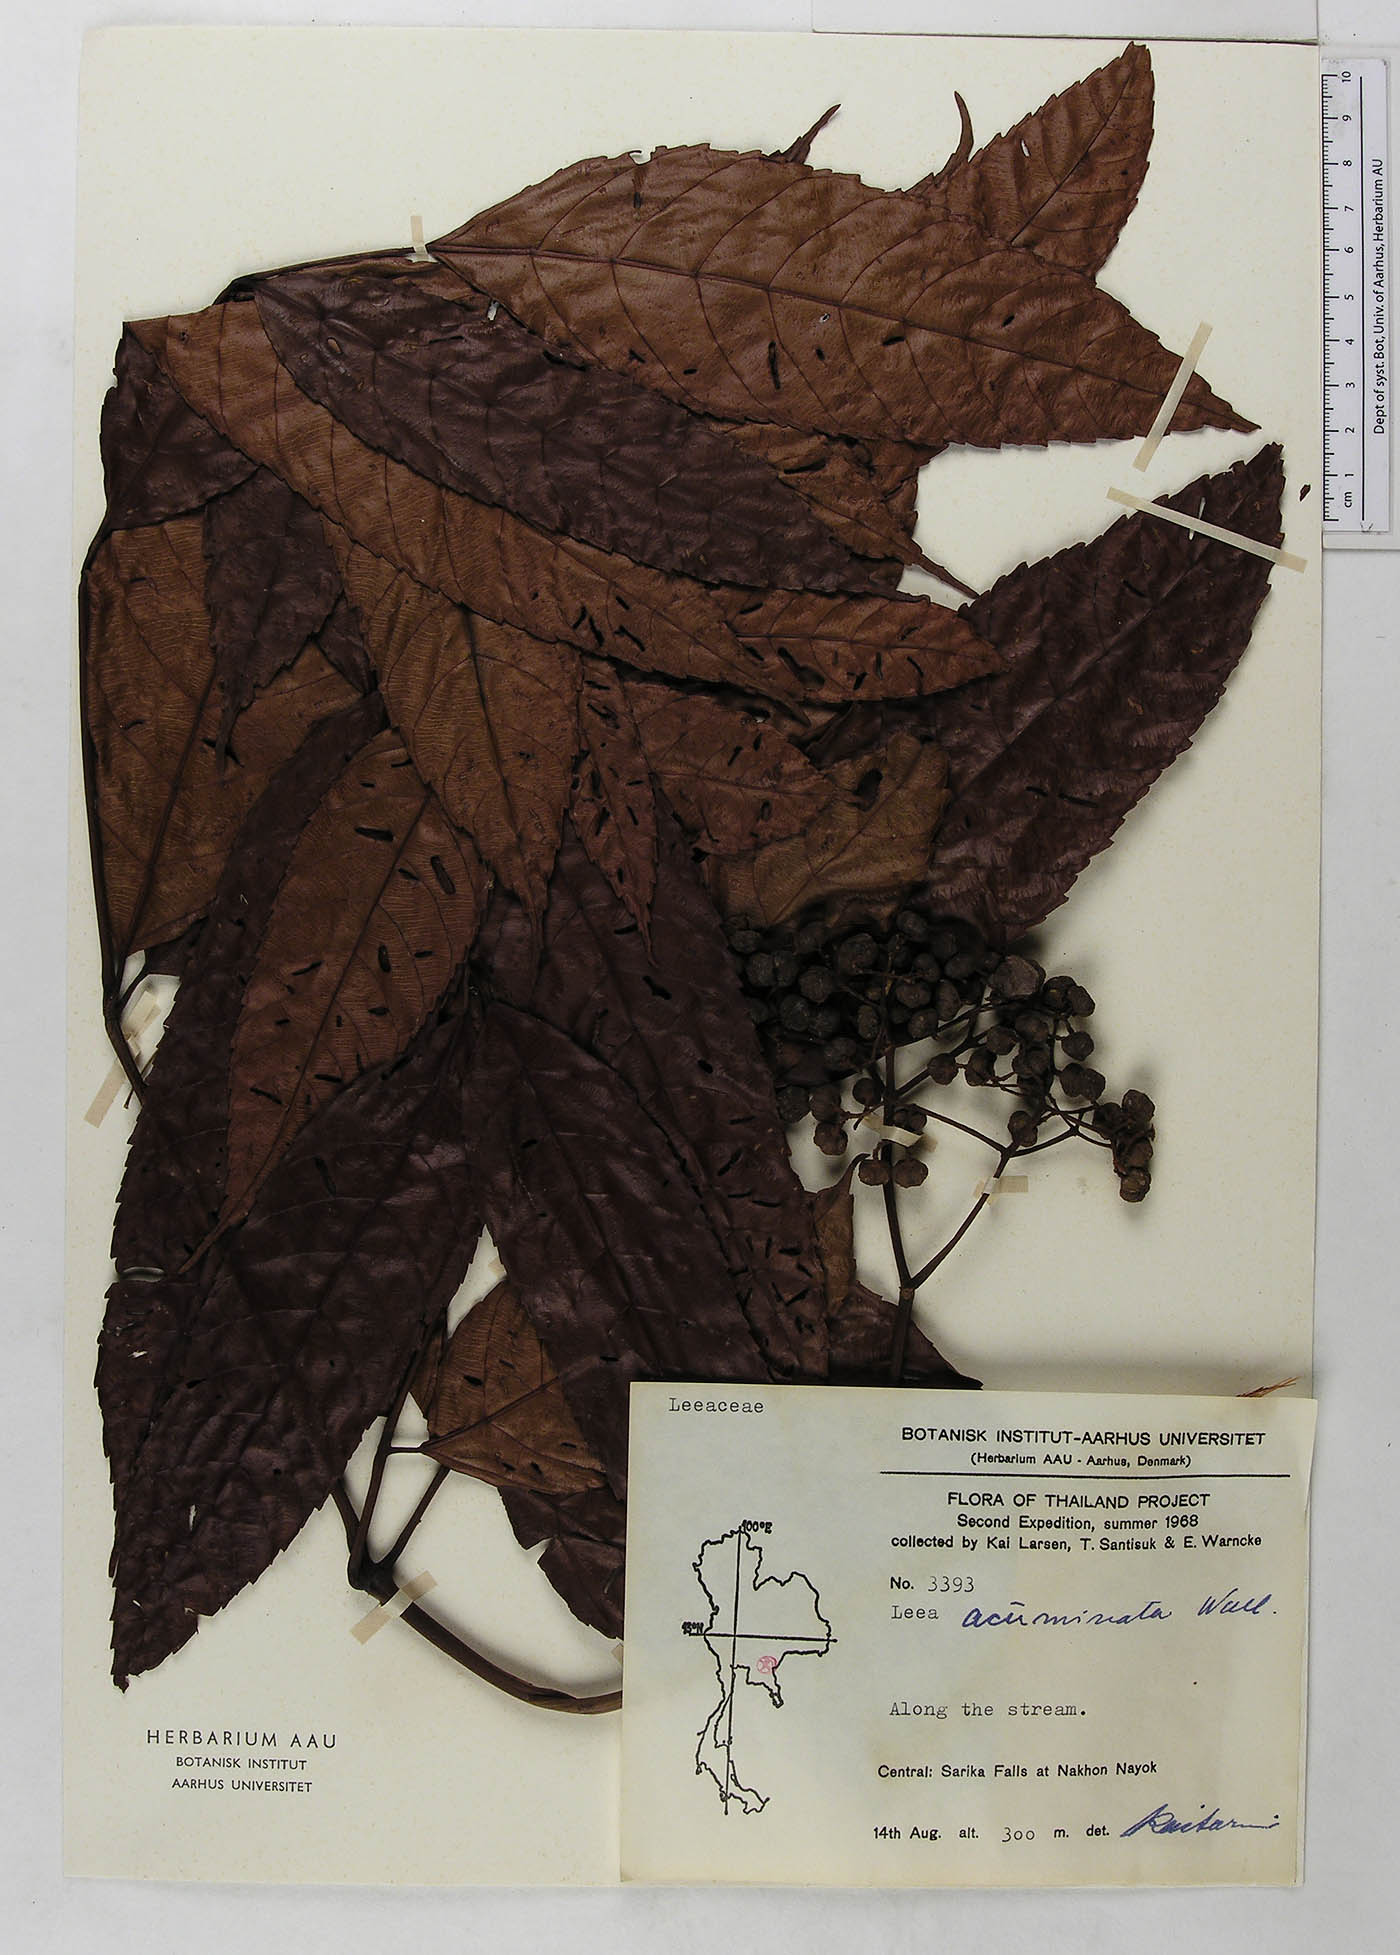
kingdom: Plantae
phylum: Tracheophyta
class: Magnoliopsida
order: Vitales
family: Vitaceae
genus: Leea
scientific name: Leea indica
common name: Bandicoot-berry
